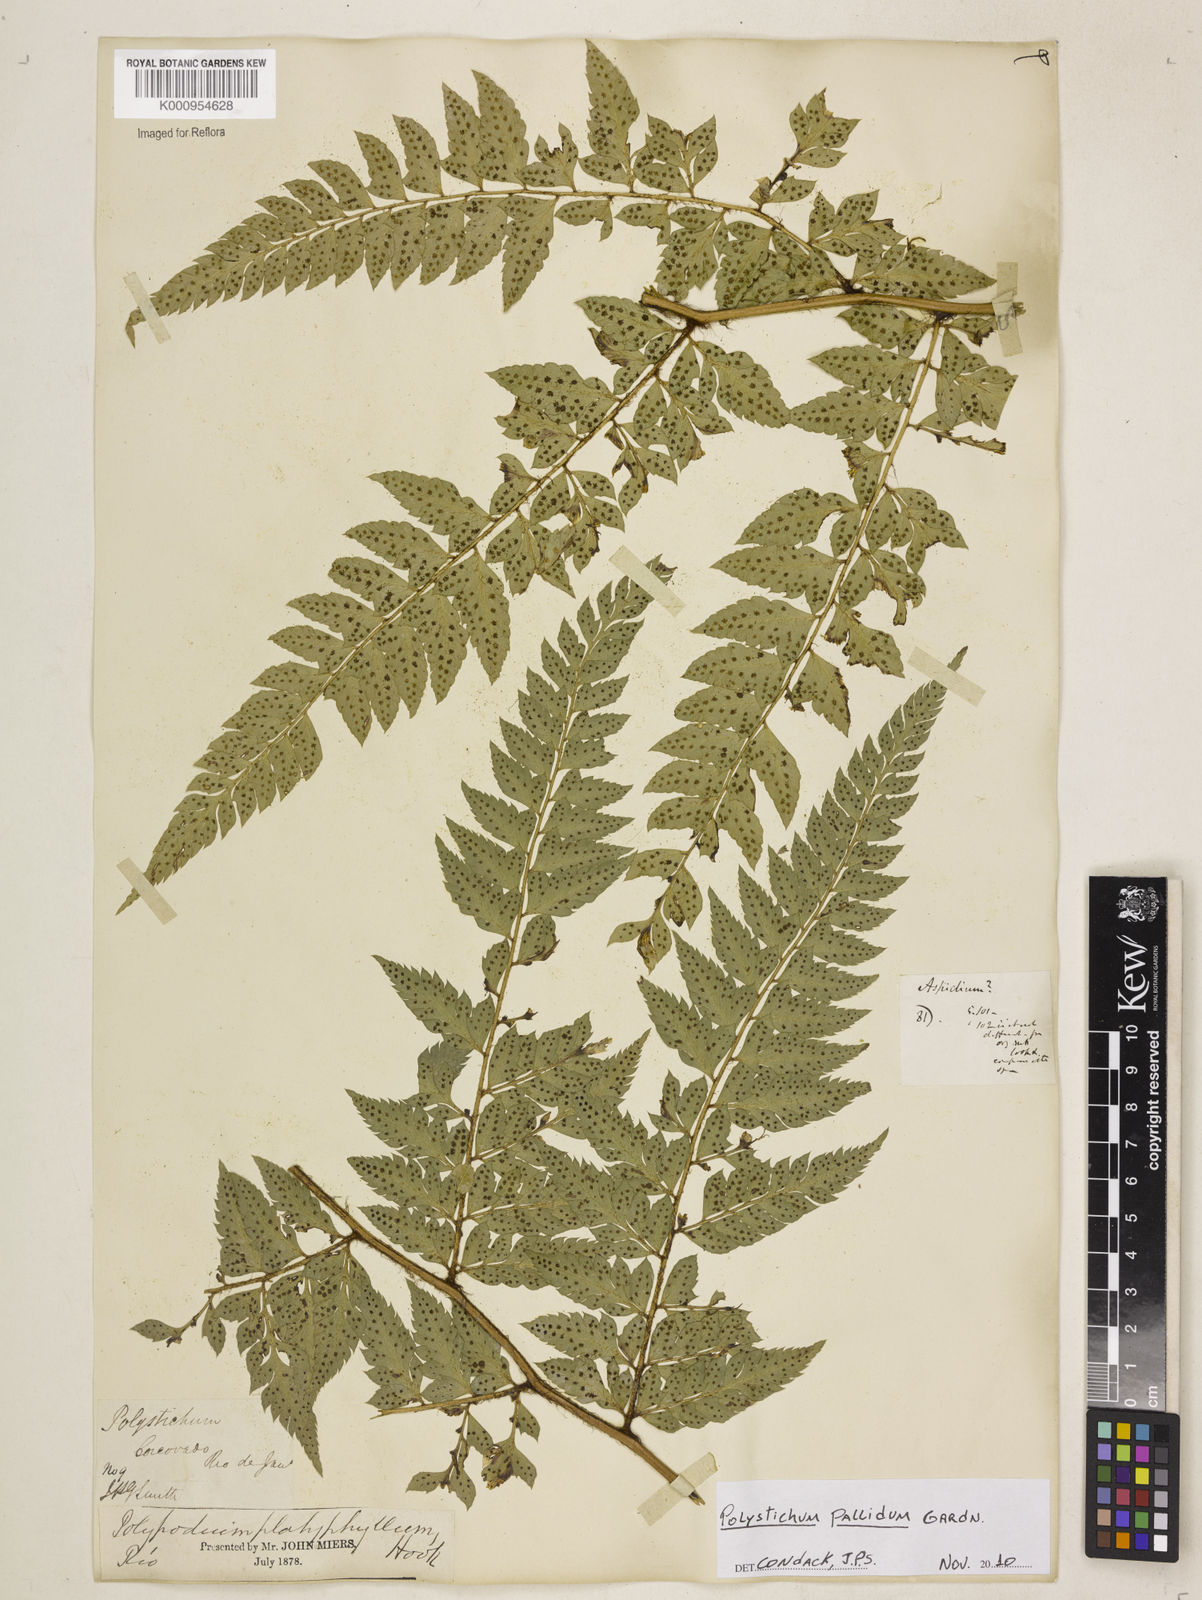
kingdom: Plantae
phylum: Tracheophyta
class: Polypodiopsida
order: Polypodiales
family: Dryopteridaceae
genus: Polystichum
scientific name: Polystichum
